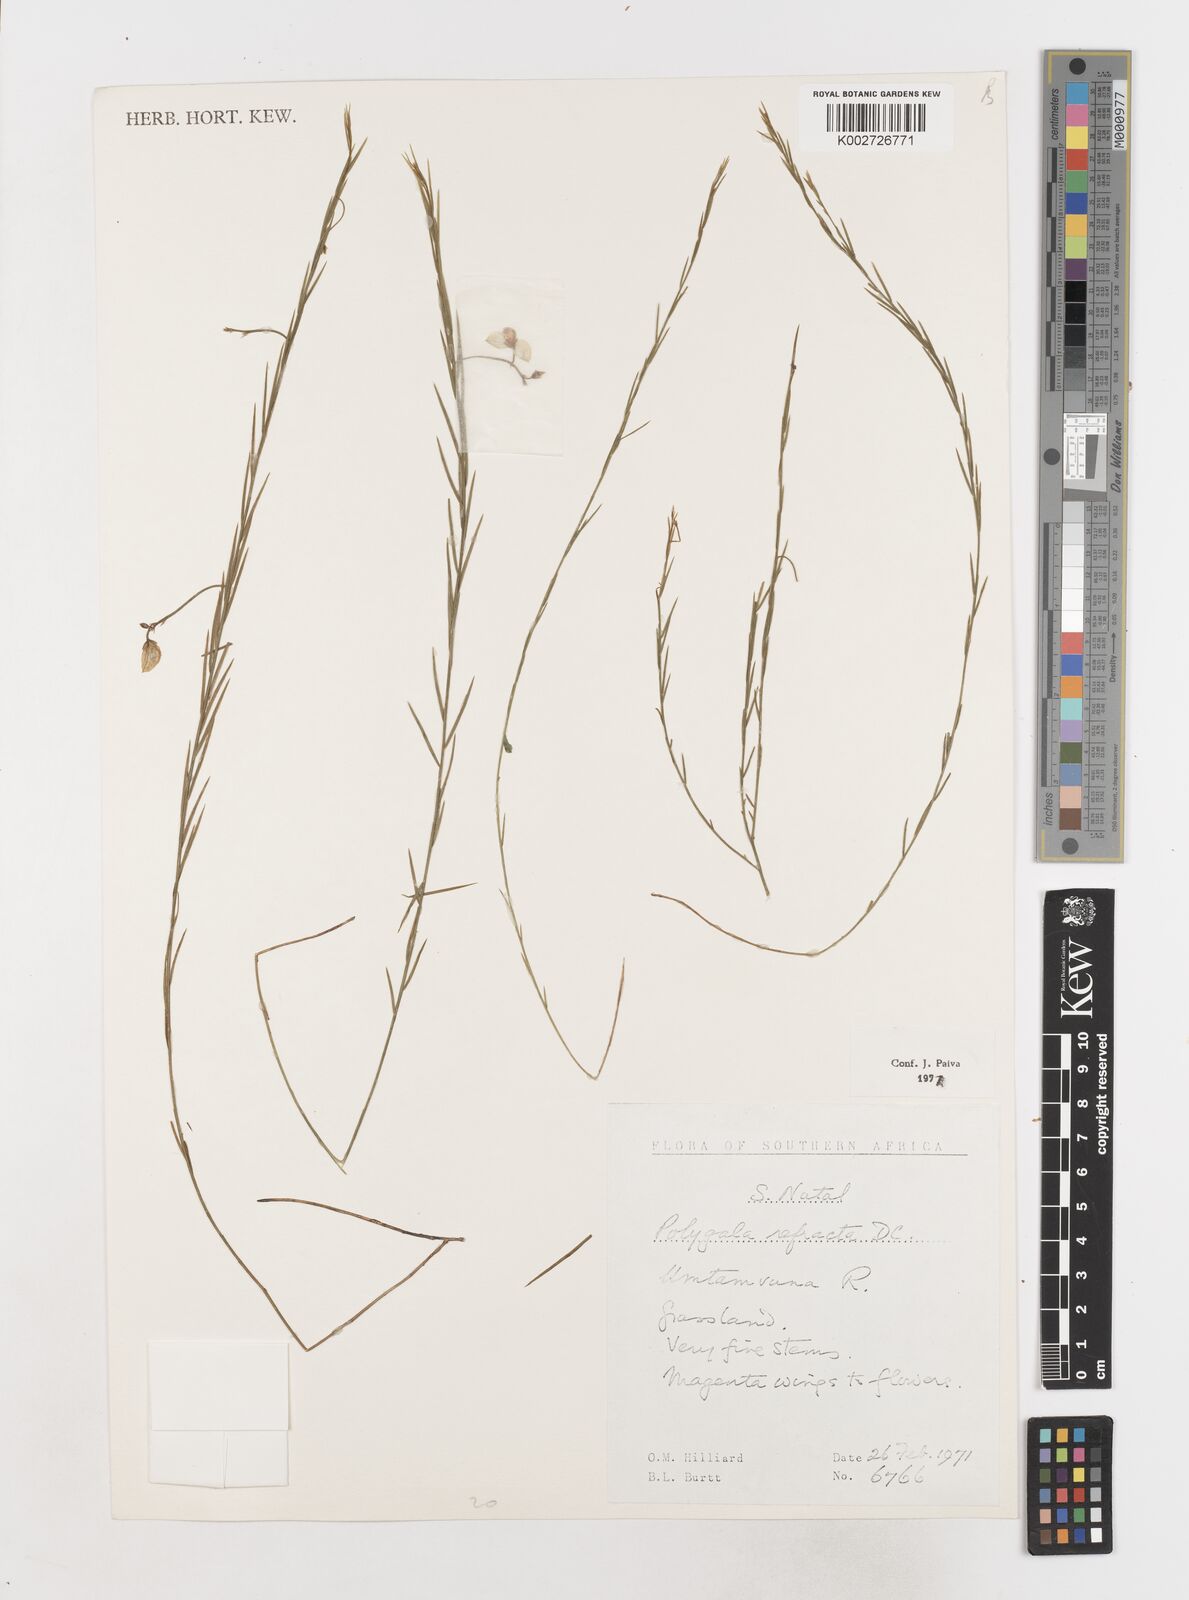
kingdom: Plantae
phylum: Tracheophyta
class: Magnoliopsida
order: Fabales
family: Polygalaceae
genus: Polygala
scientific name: Polygala refracta
